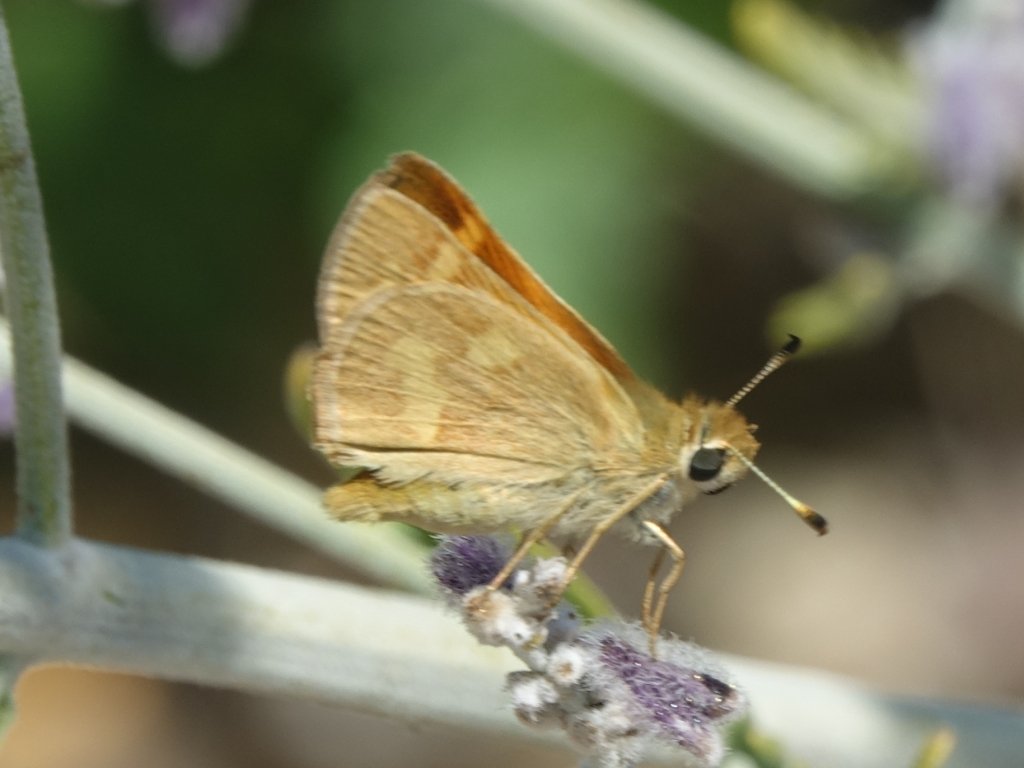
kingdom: Animalia
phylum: Arthropoda
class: Insecta
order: Lepidoptera
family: Hesperiidae
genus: Ochlodes
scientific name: Ochlodes sylvanoides
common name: Woodland Skipper
